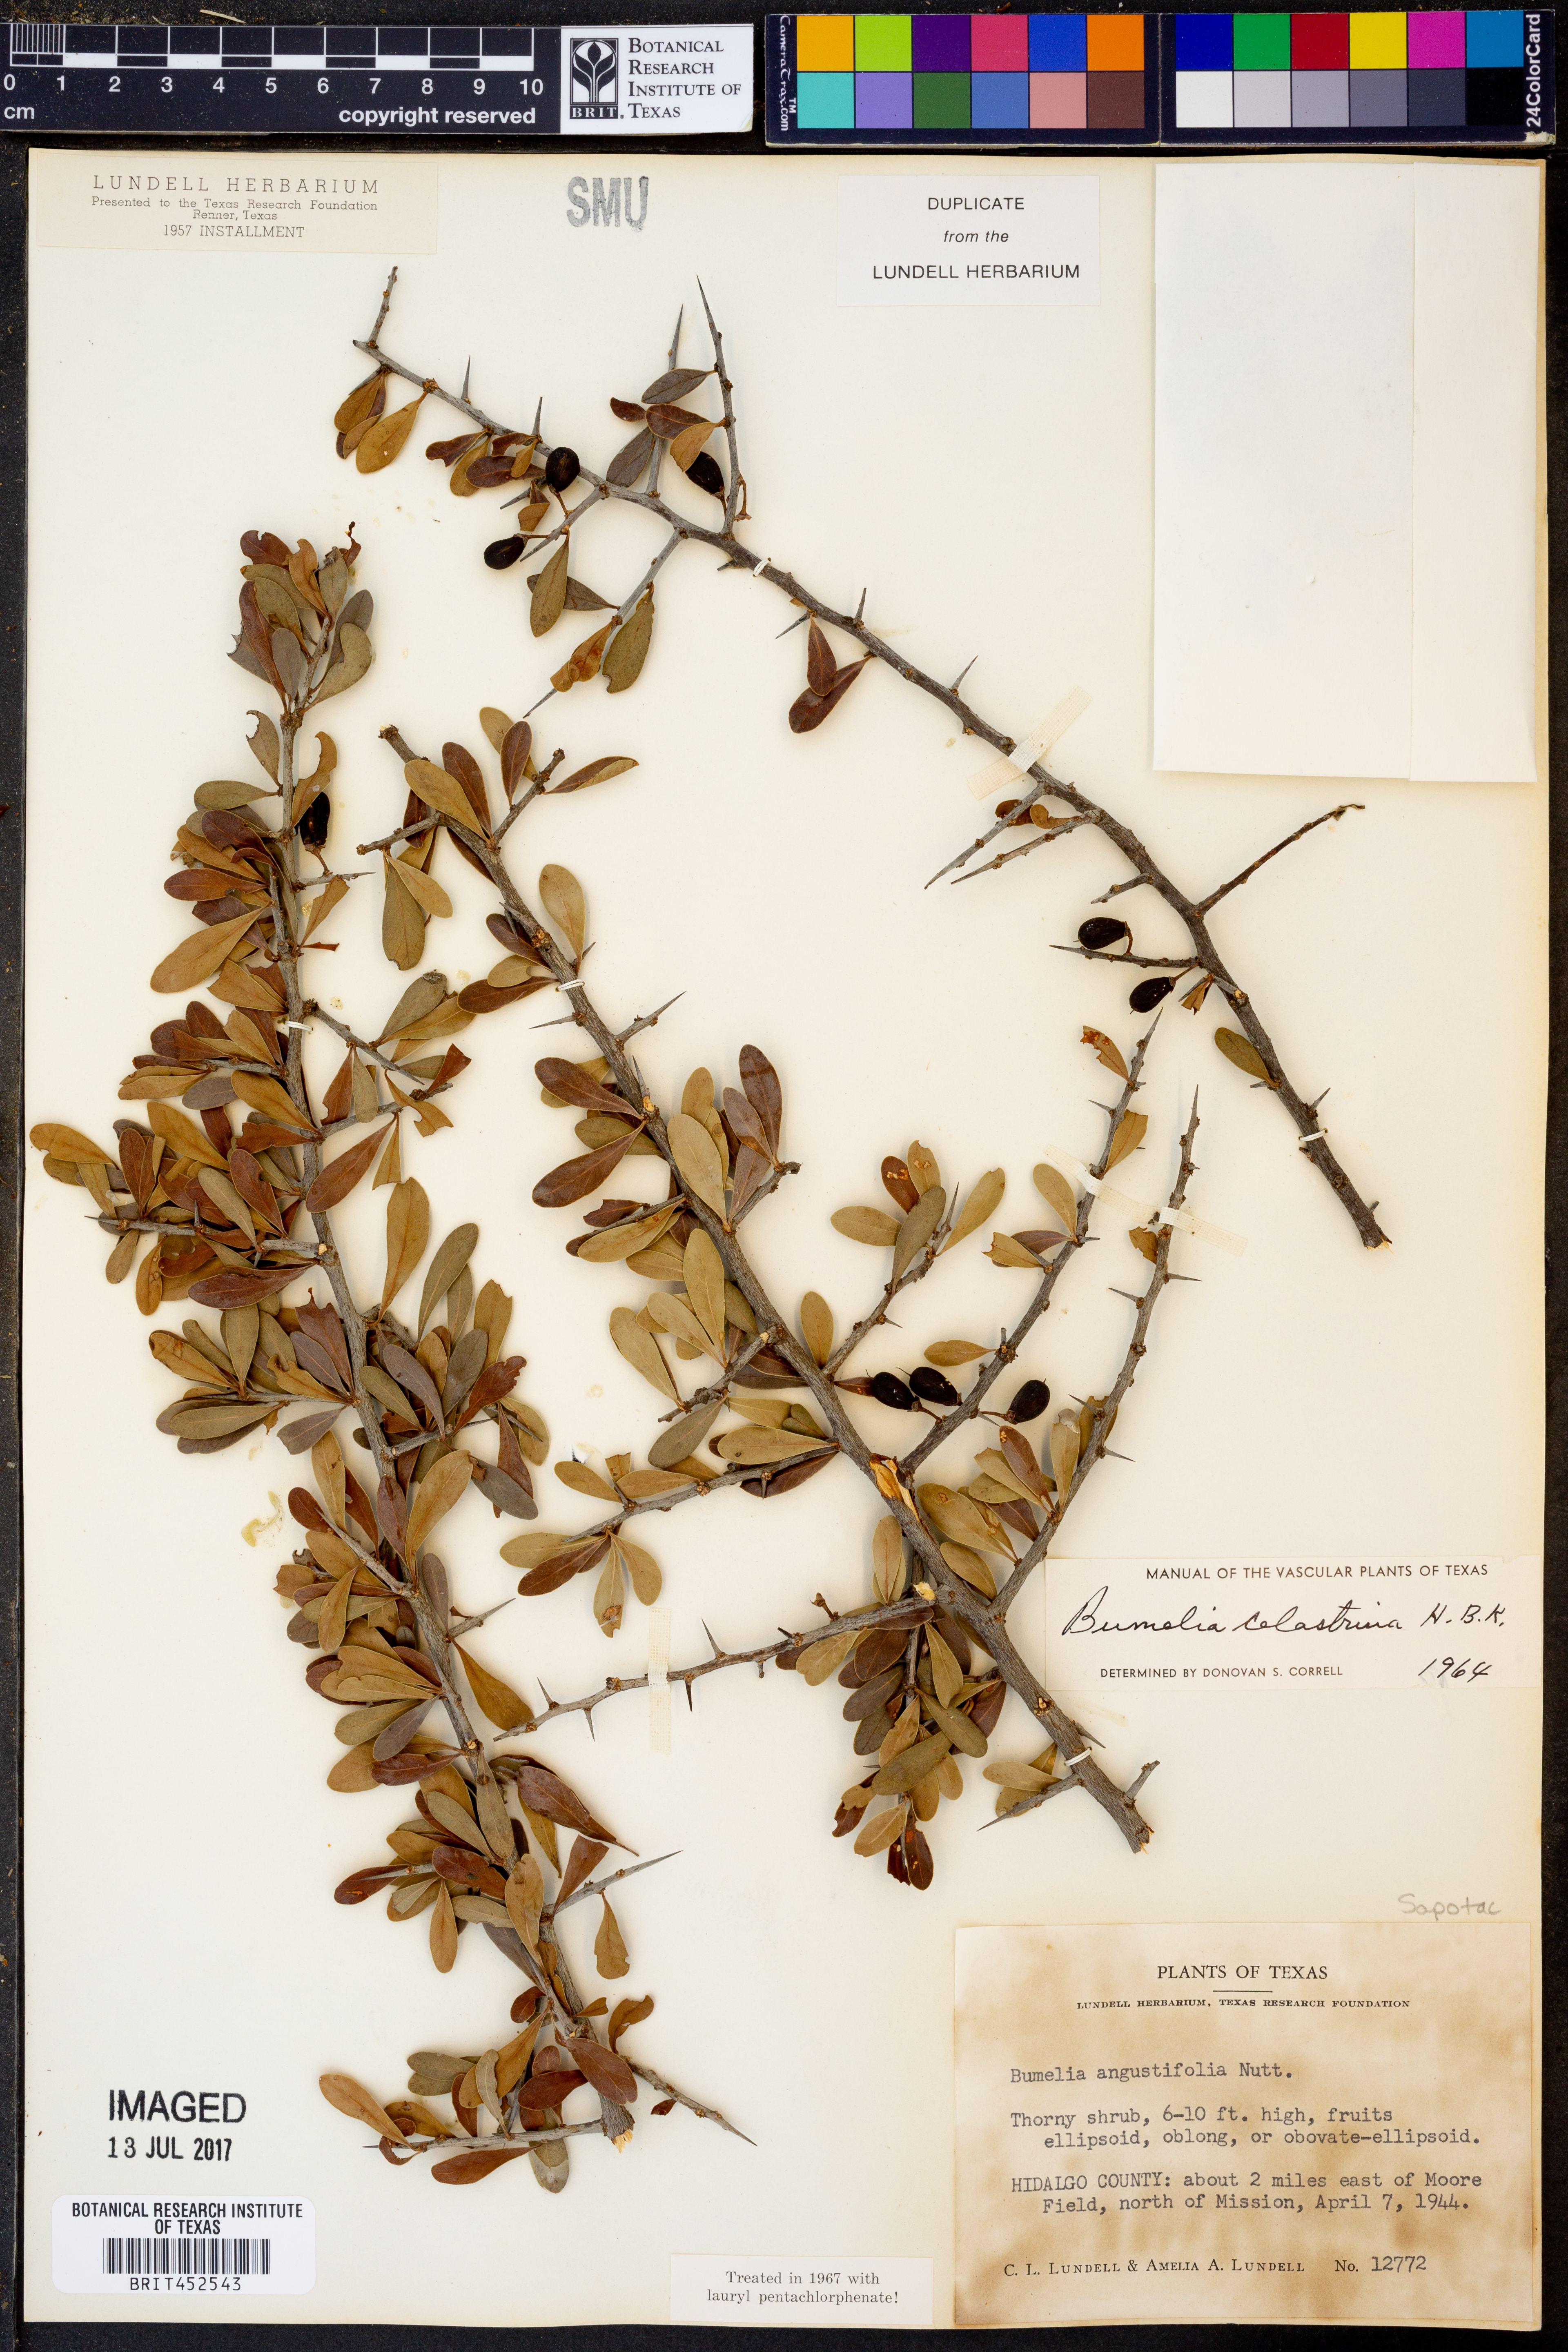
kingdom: Plantae
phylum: Tracheophyta
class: Magnoliopsida
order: Ericales
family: Sapotaceae
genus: Sideroxylon
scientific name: Sideroxylon celastrinum
